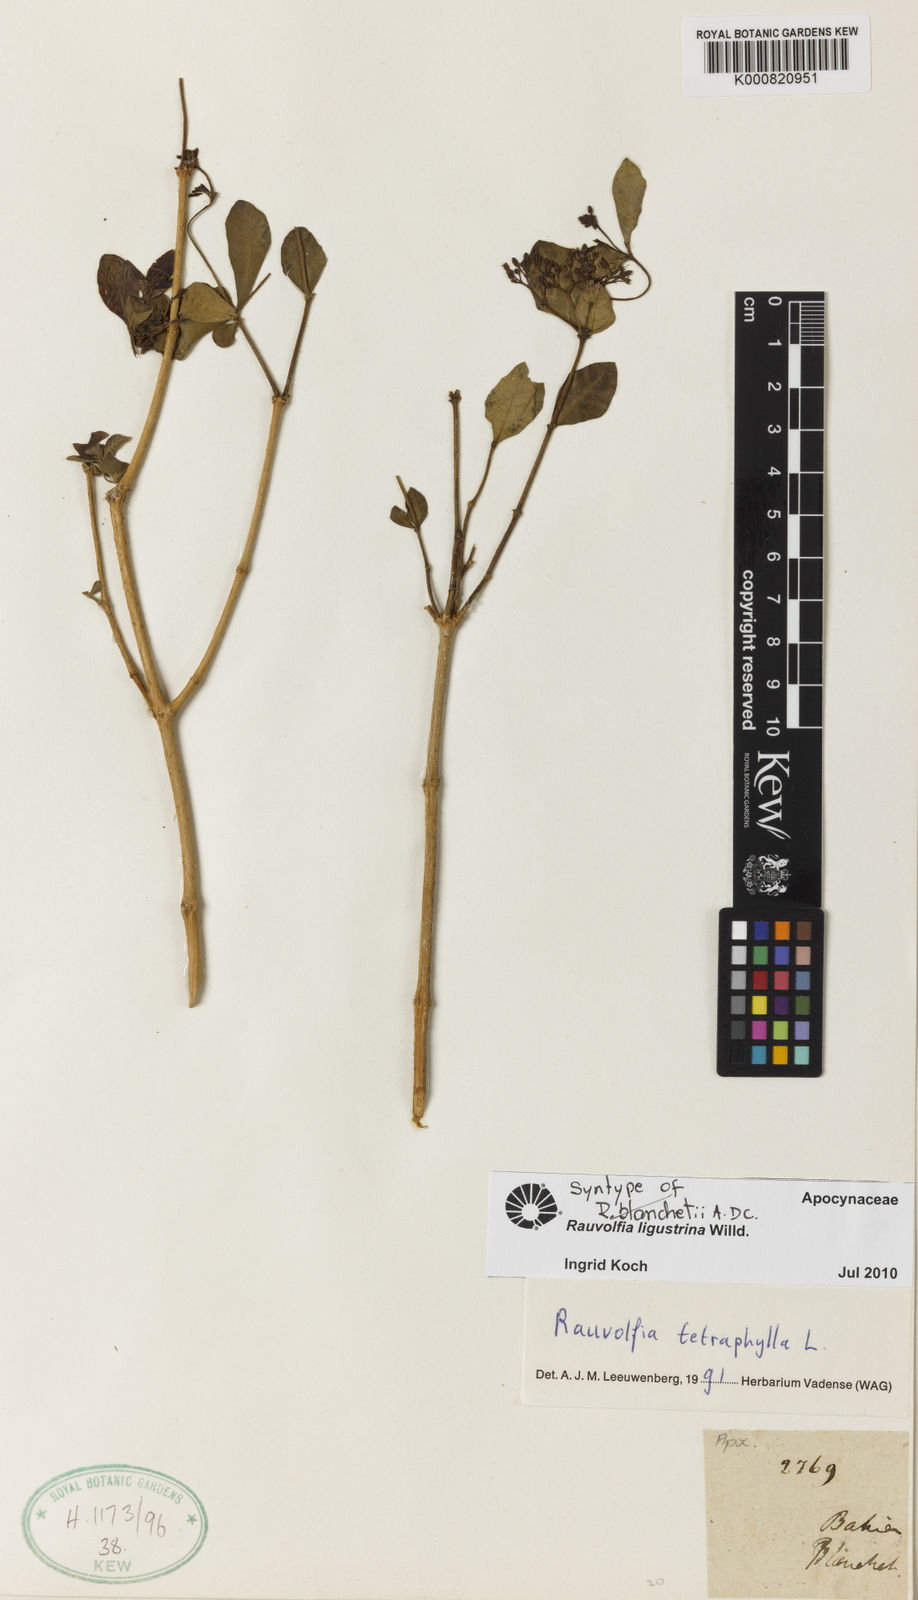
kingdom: Plantae
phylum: Tracheophyta
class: Magnoliopsida
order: Gentianales
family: Apocynaceae
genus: Rauvolfia
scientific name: Rauvolfia ligustrina
